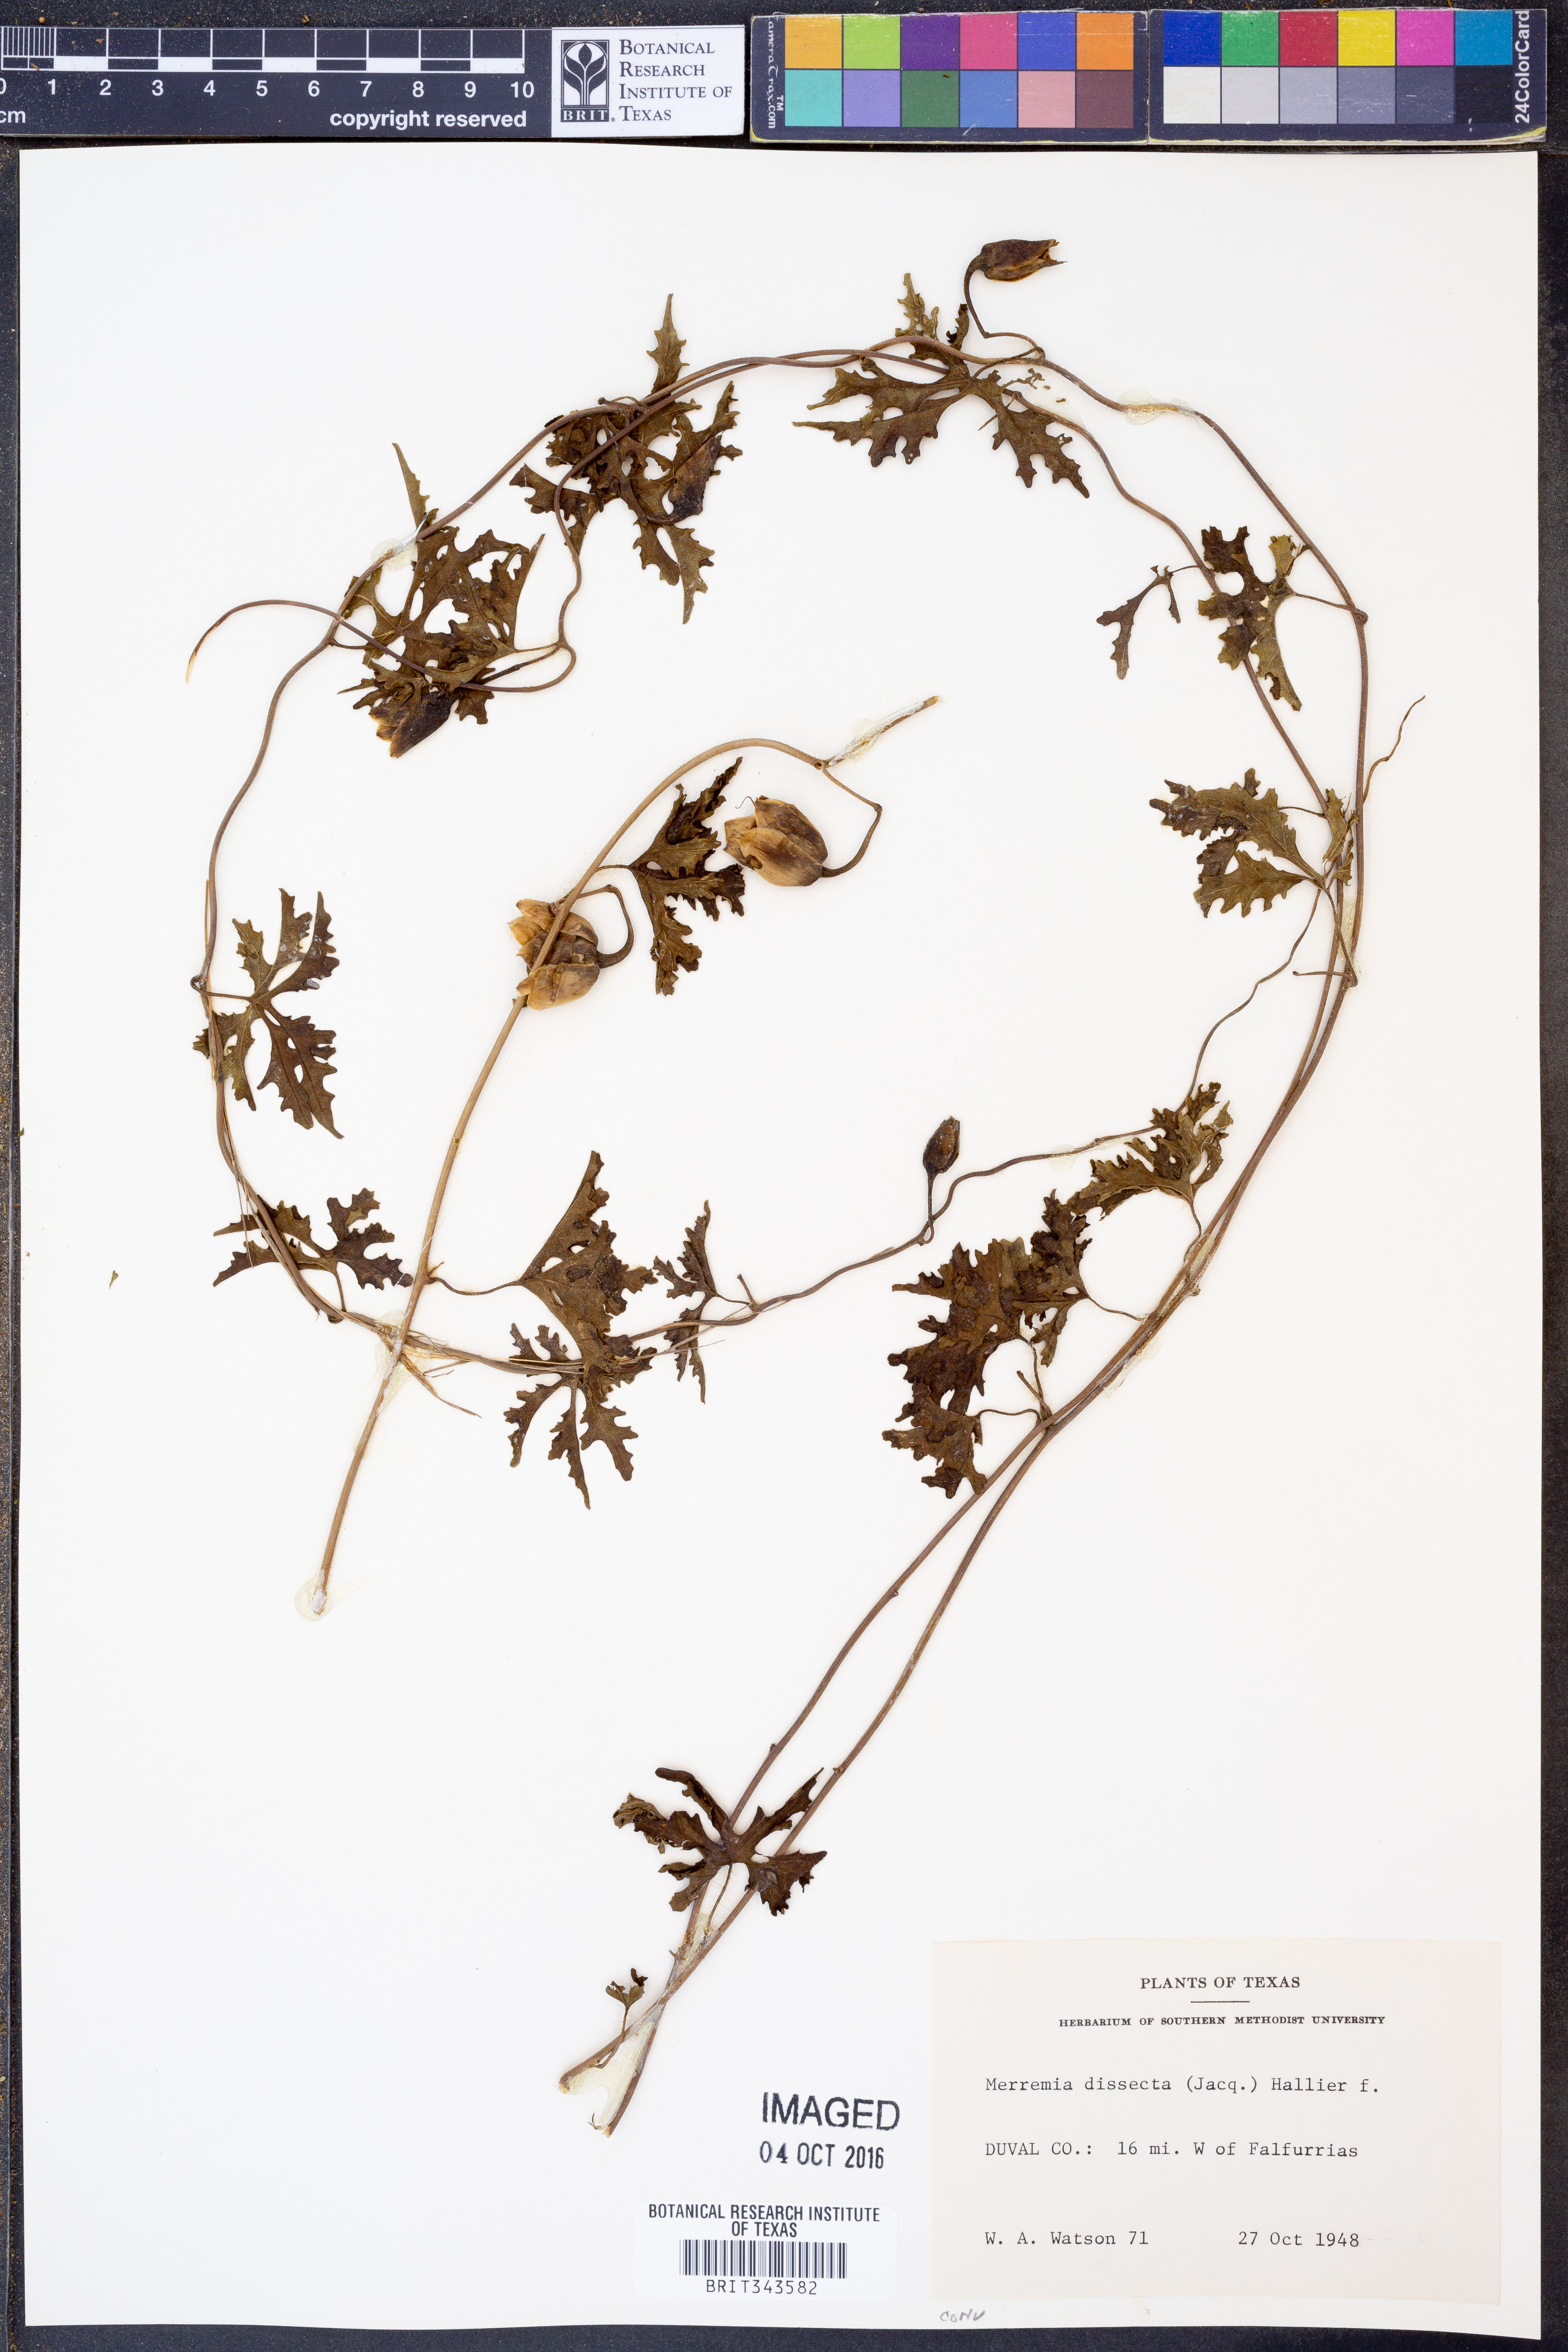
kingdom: Plantae
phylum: Tracheophyta
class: Magnoliopsida
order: Solanales
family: Convolvulaceae
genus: Distimake
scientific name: Distimake dissectus
